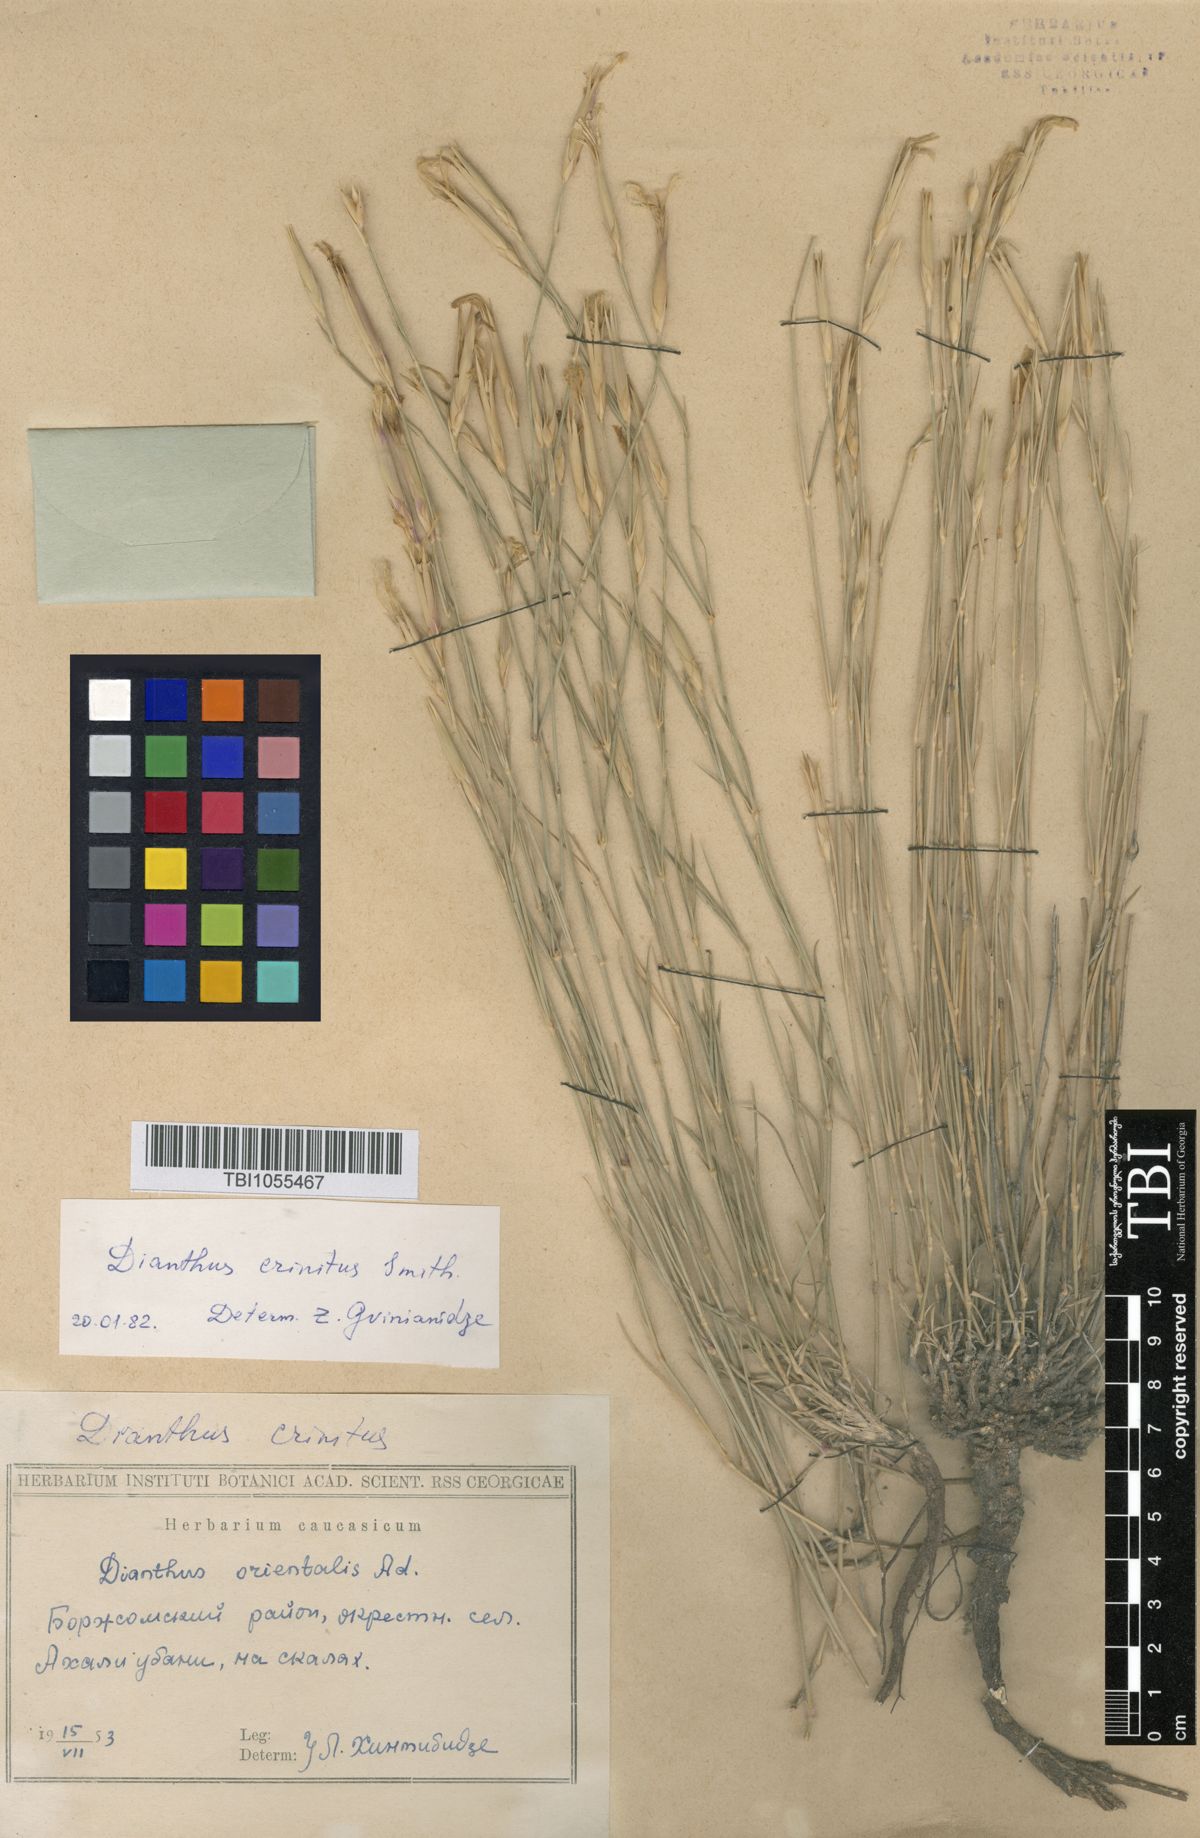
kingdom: Plantae
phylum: Tracheophyta
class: Magnoliopsida
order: Caryophyllales
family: Caryophyllaceae
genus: Dianthus
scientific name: Dianthus crinitus
